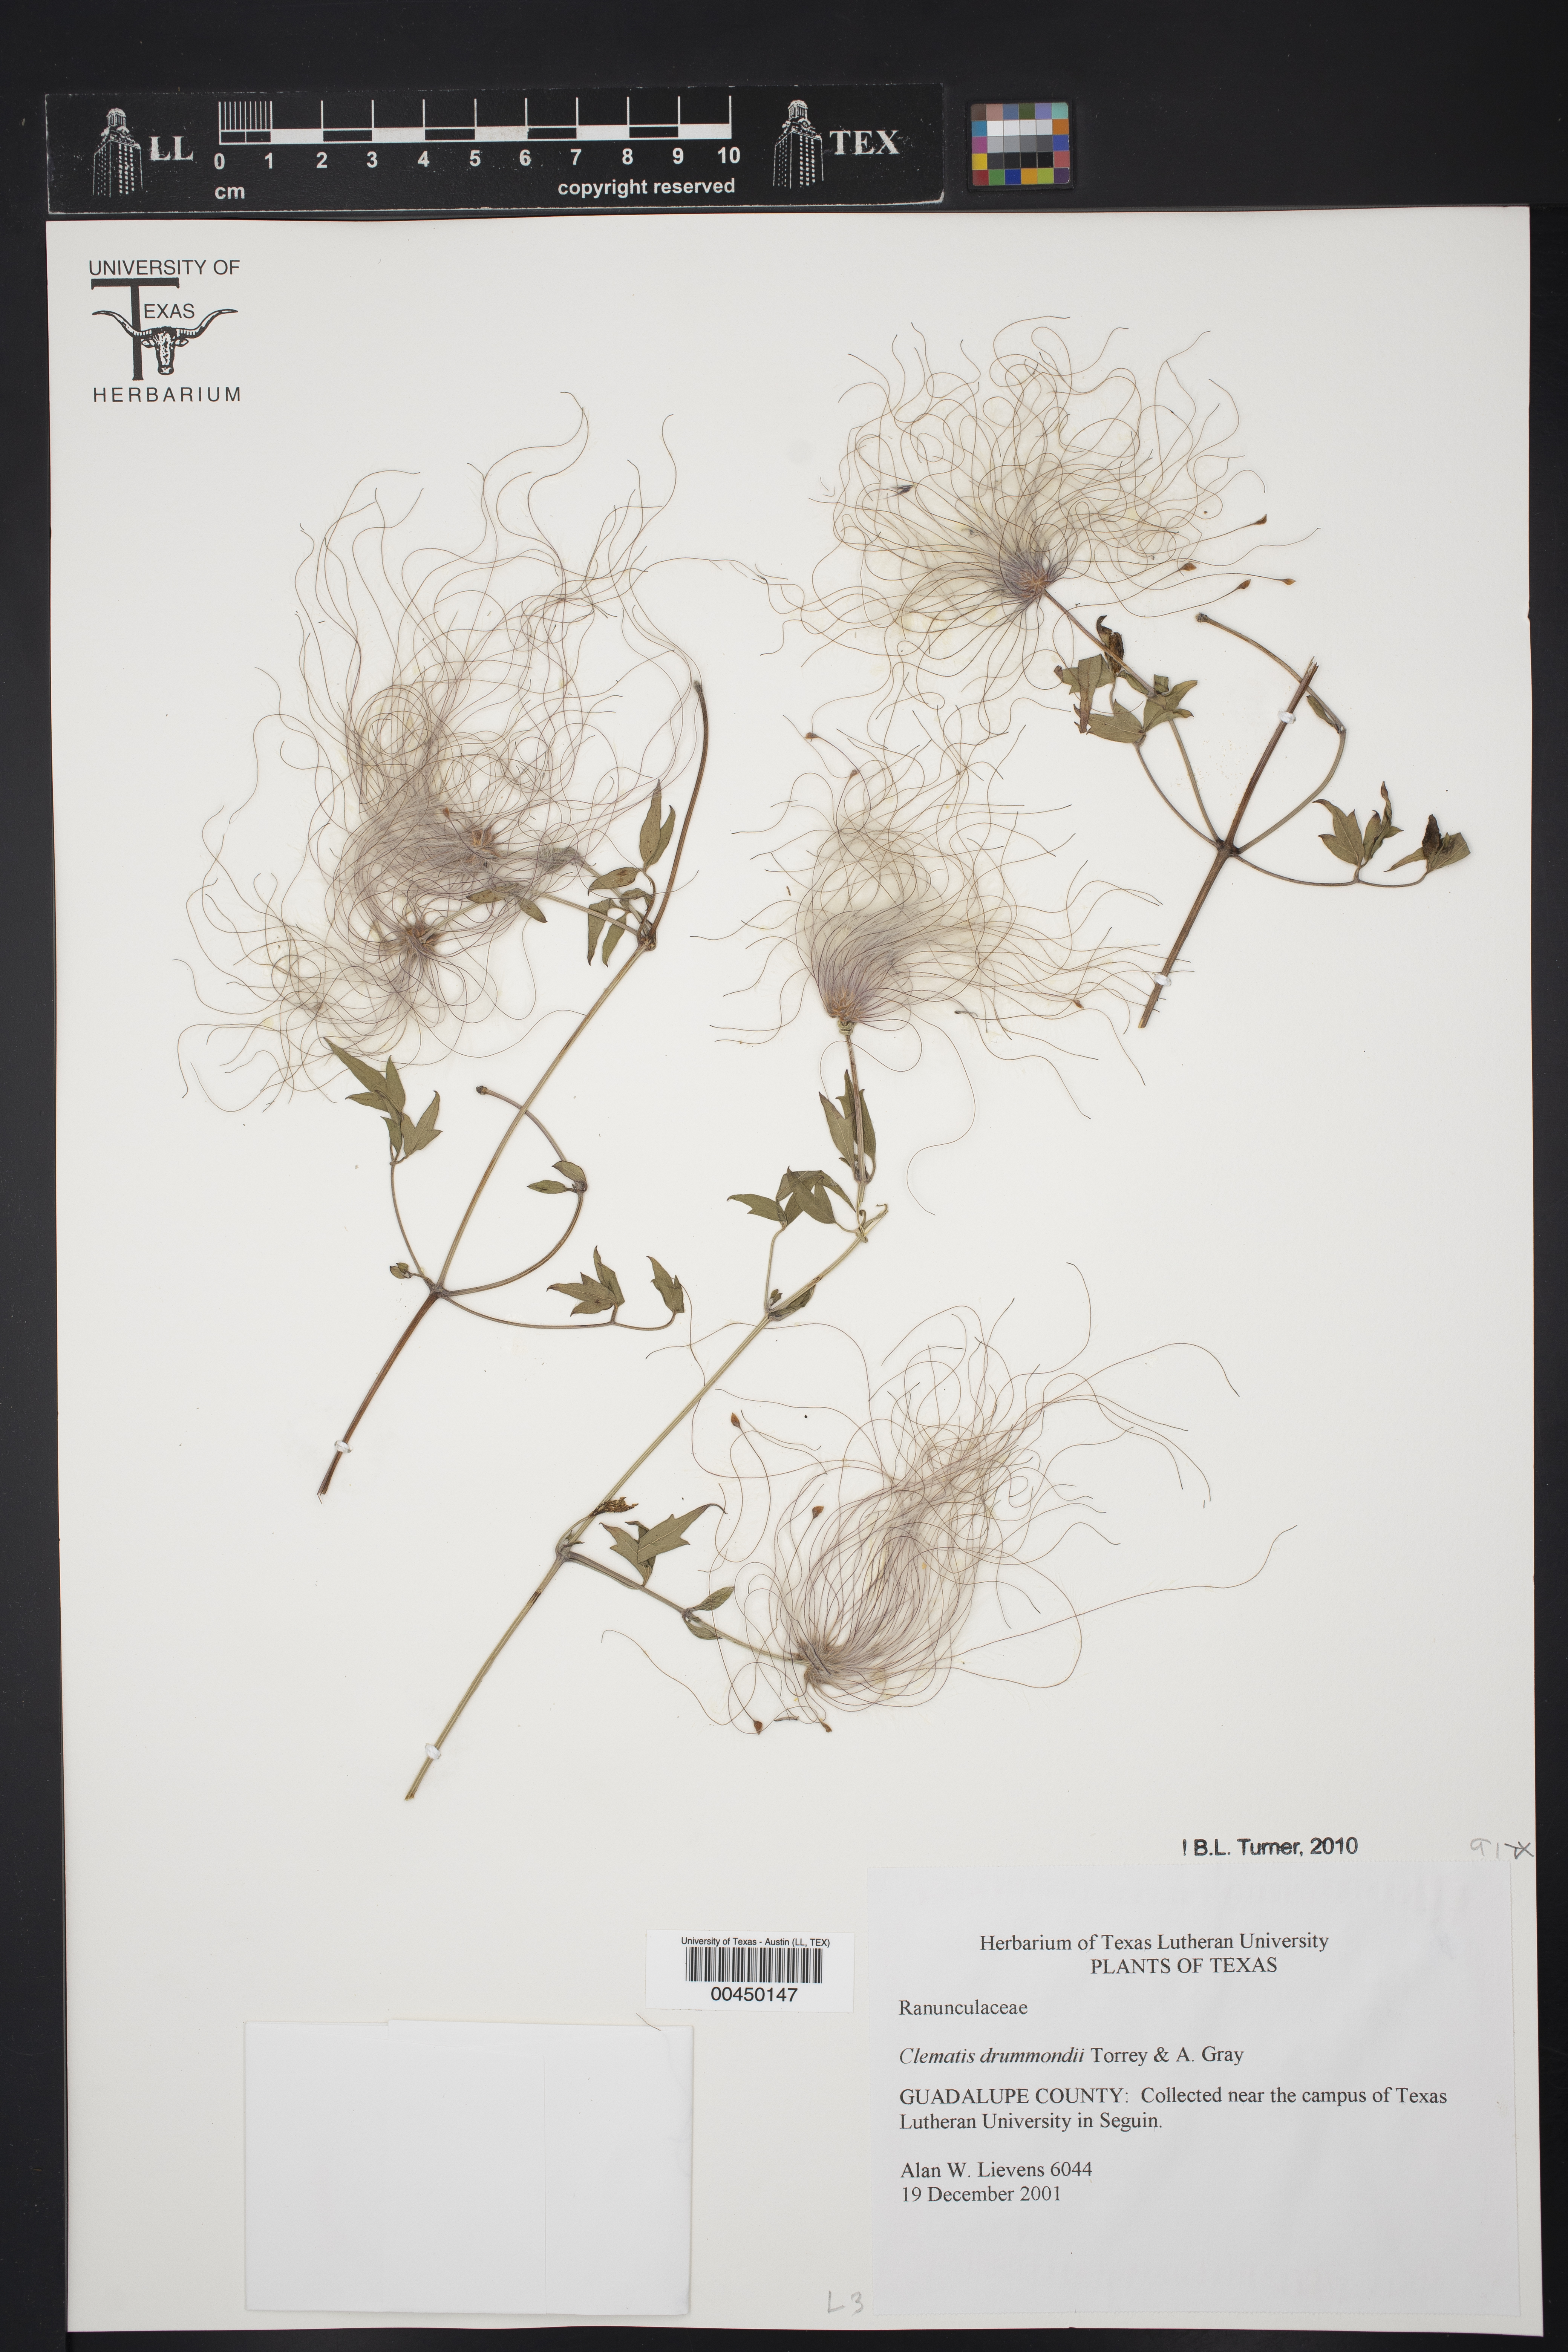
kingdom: Plantae
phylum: Tracheophyta
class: Magnoliopsida
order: Ranunculales
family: Ranunculaceae
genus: Clematis
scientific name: Clematis drummondii
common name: Texas virgin's bower
